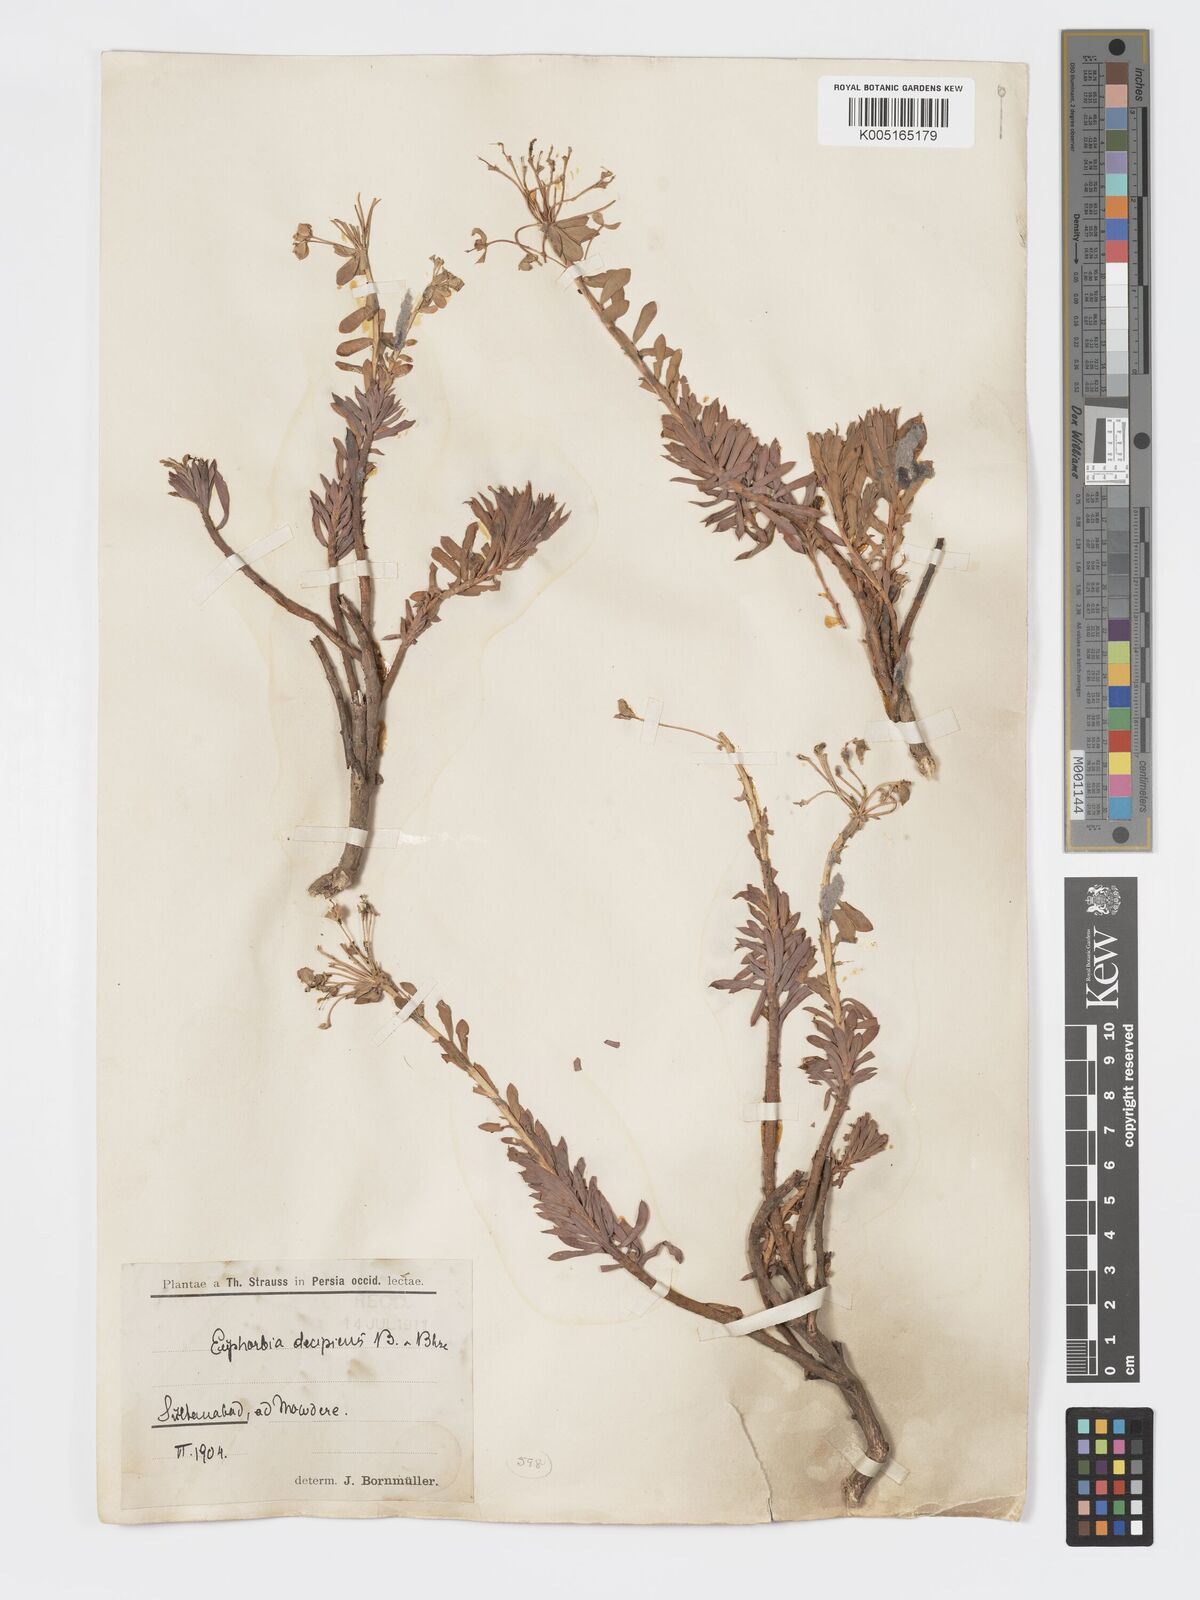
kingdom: Plantae
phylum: Tracheophyta
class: Magnoliopsida
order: Malpighiales
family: Euphorbiaceae
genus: Euphorbia
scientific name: Euphorbia polycaulis
